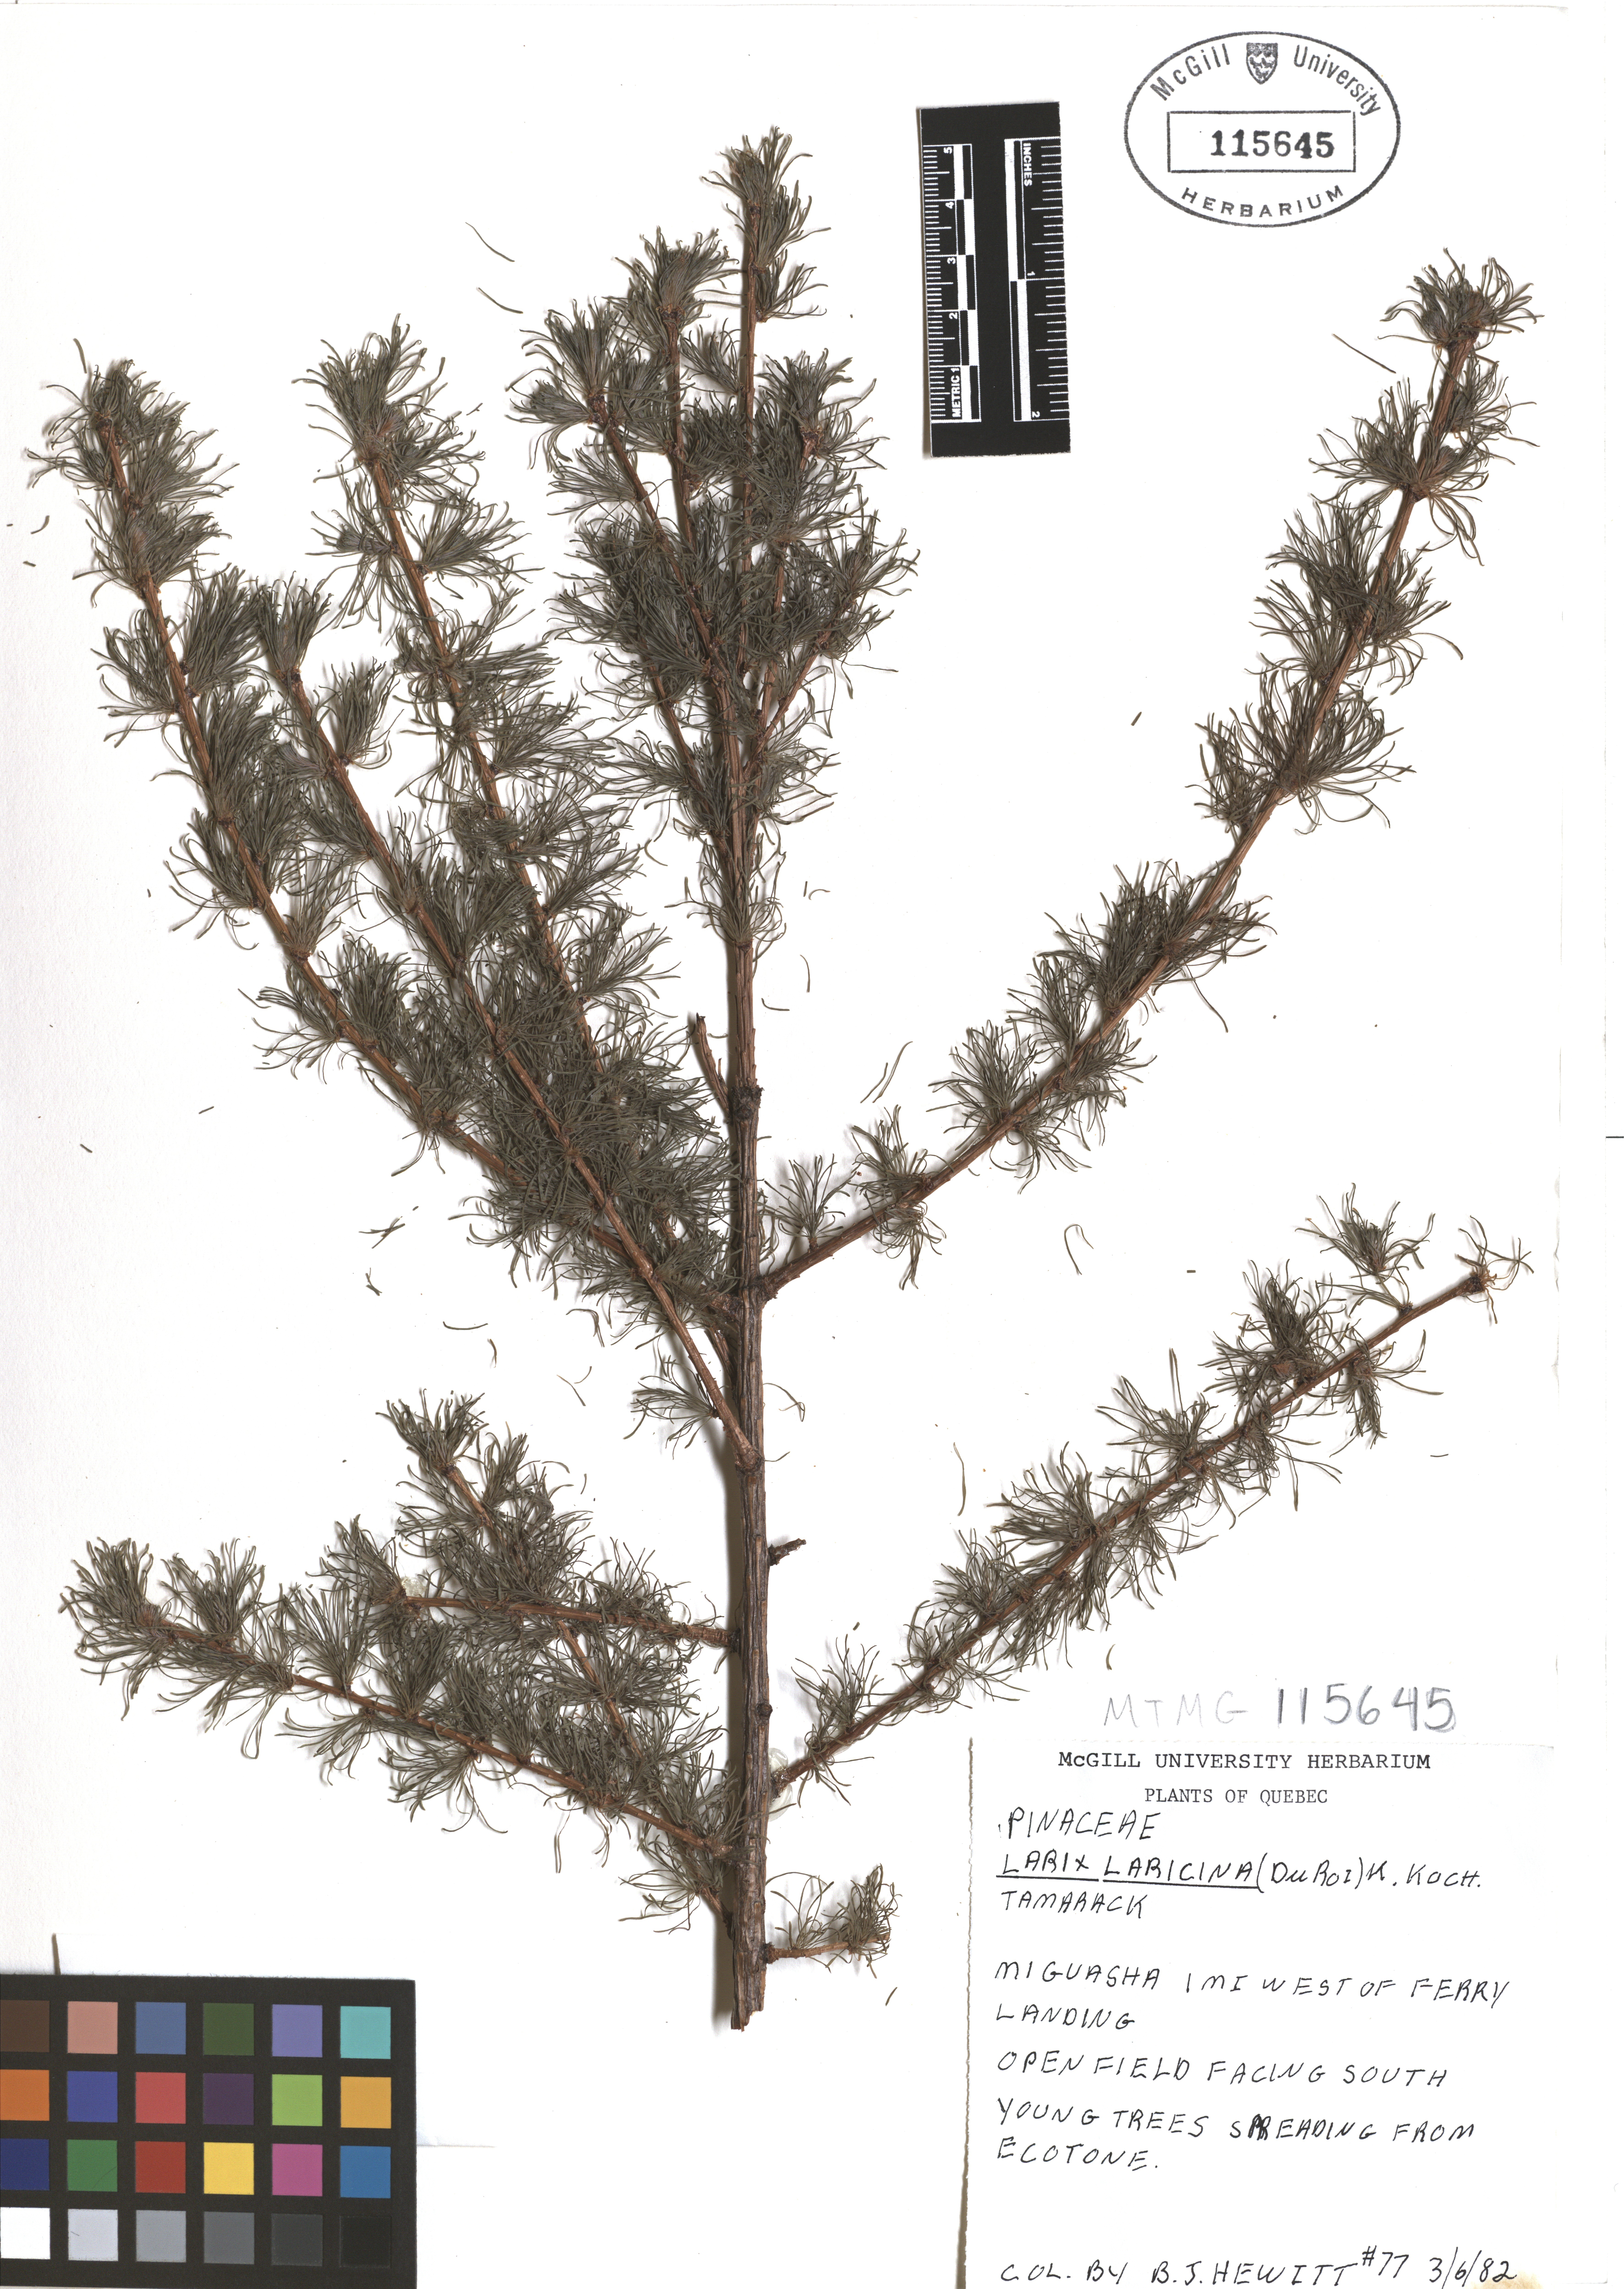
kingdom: Plantae
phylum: Tracheophyta
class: Pinopsida
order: Pinales
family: Pinaceae
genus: Larix
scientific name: Larix laricina
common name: American larch
